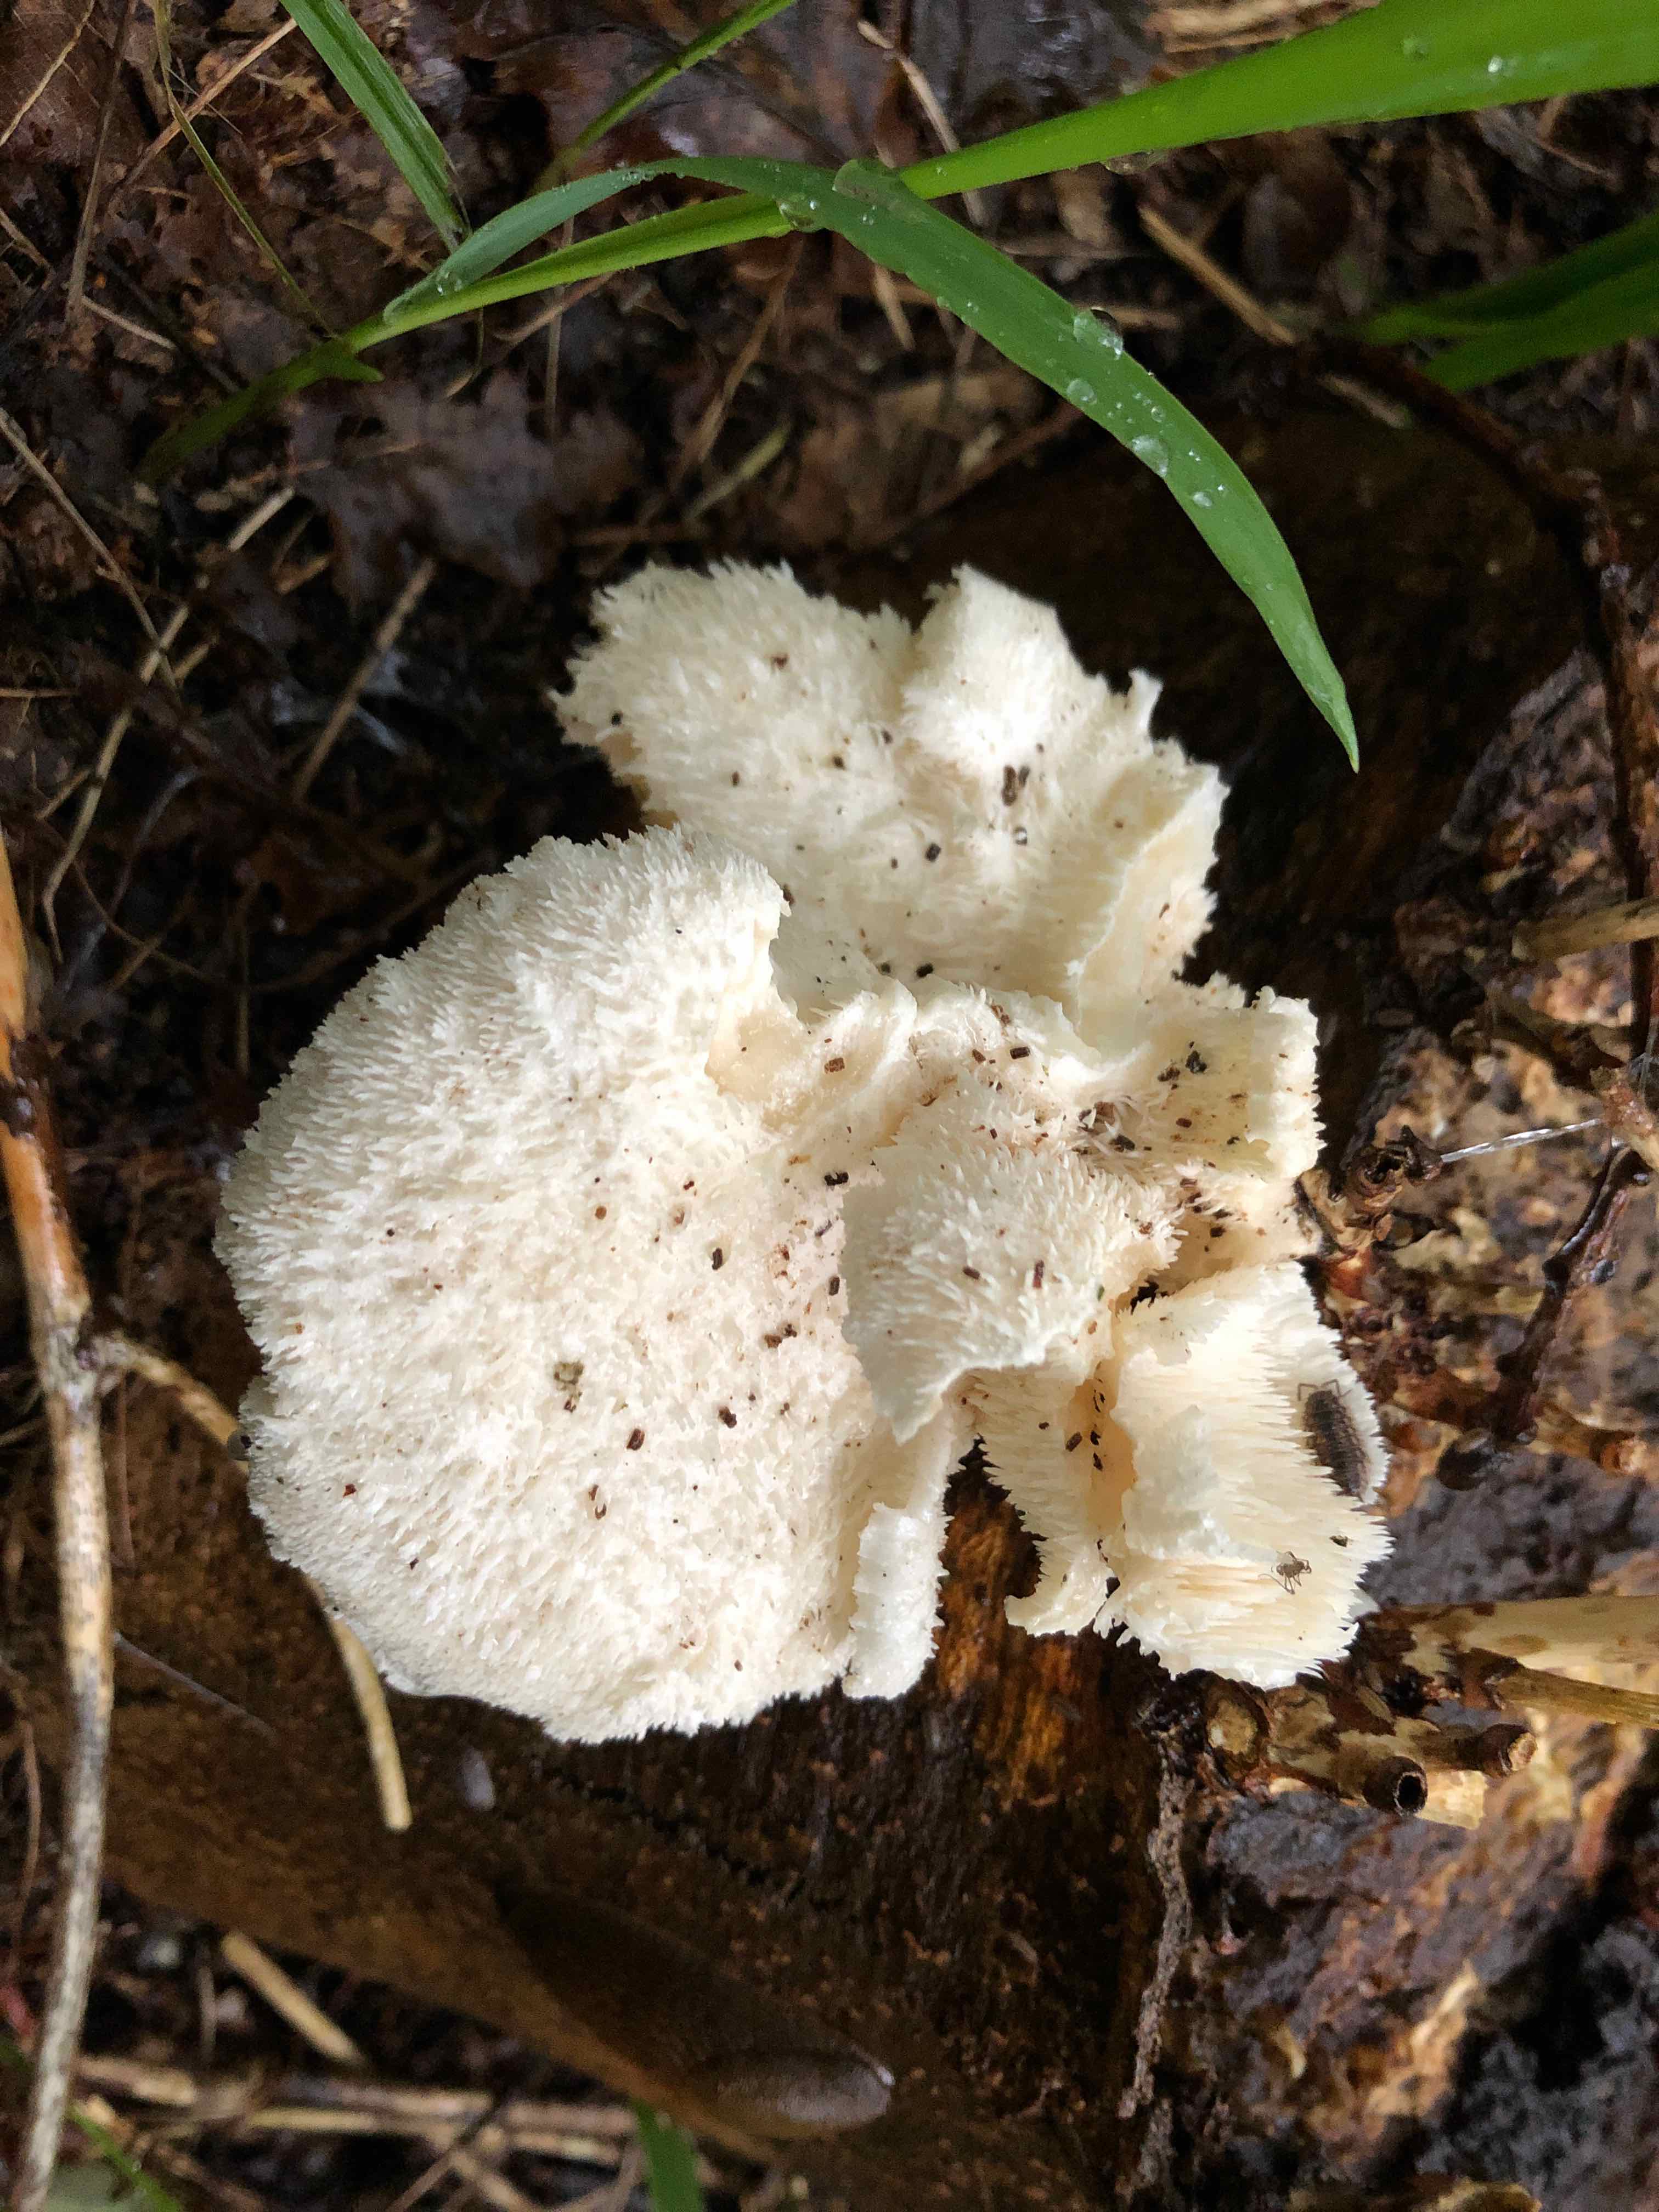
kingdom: Fungi
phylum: Basidiomycota
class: Agaricomycetes
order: Russulales
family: Hericiaceae
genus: Hericium
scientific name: Hericium cirrhatum
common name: børstepigsvamp
